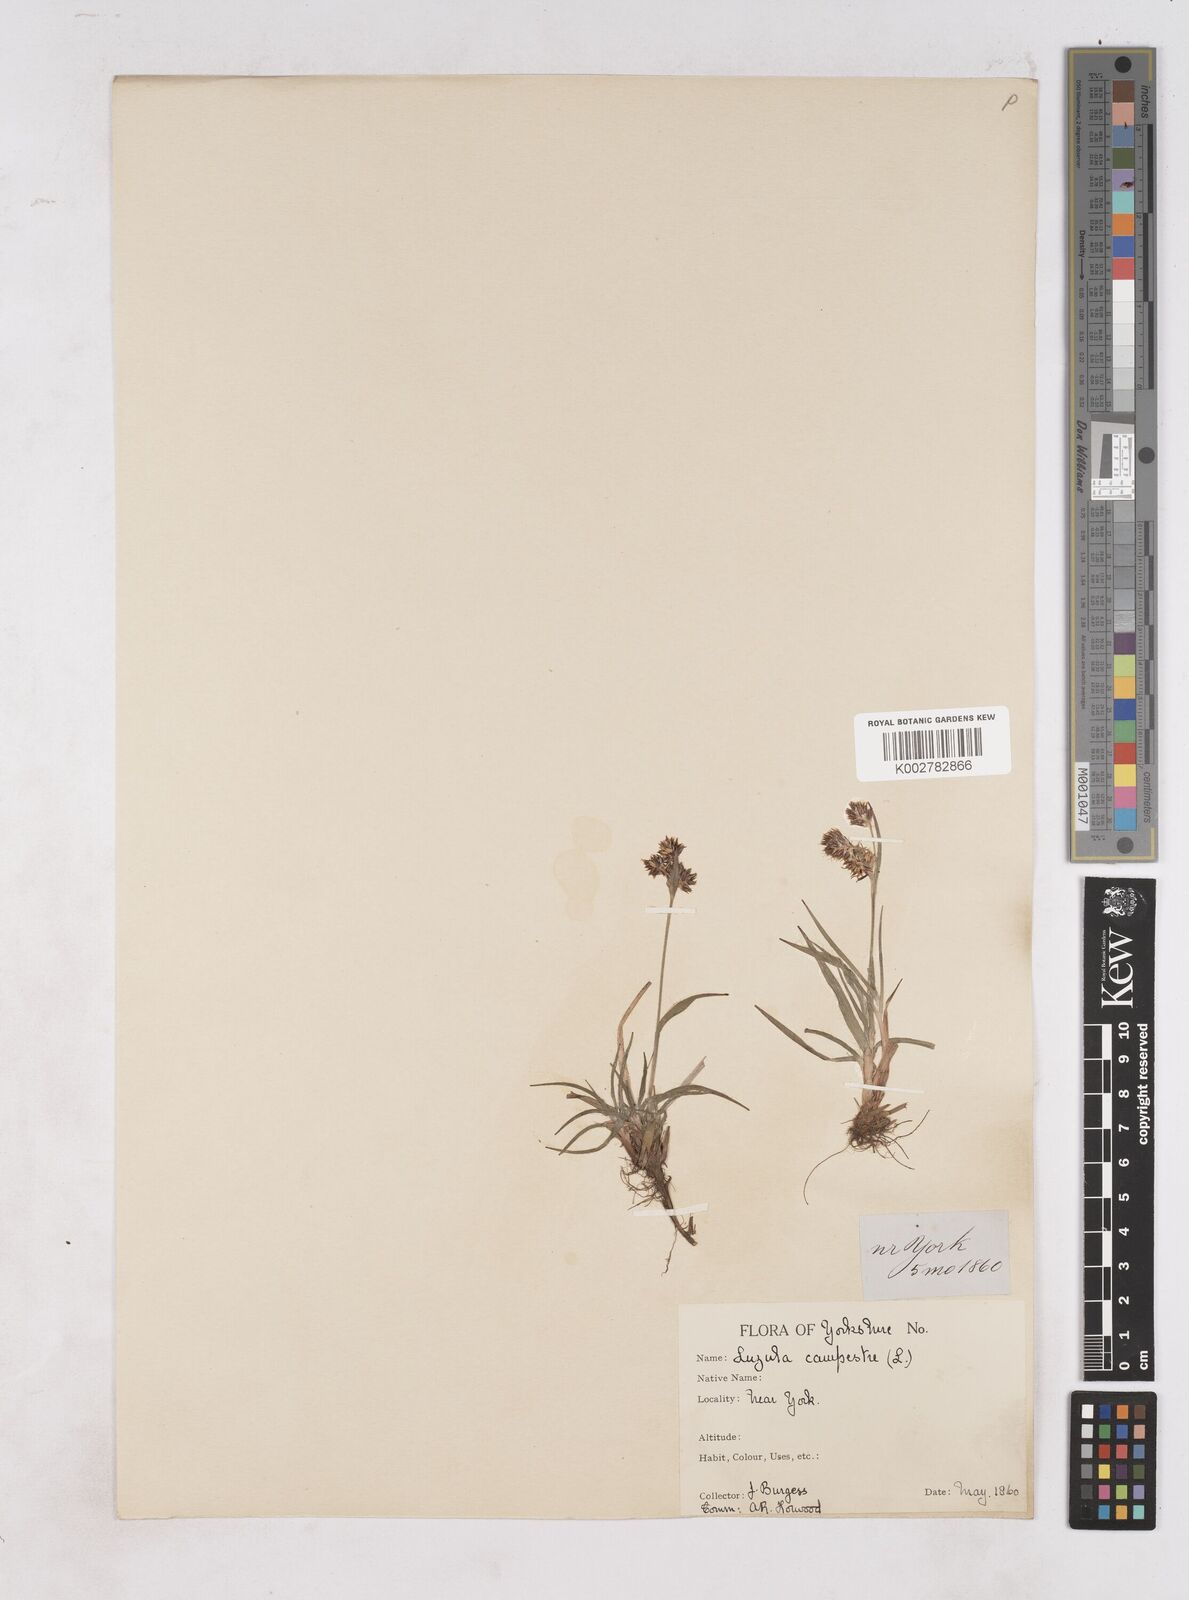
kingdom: Plantae
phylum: Tracheophyta
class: Liliopsida
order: Poales
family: Juncaceae
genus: Luzula
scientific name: Luzula campestris
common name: Field wood-rush
